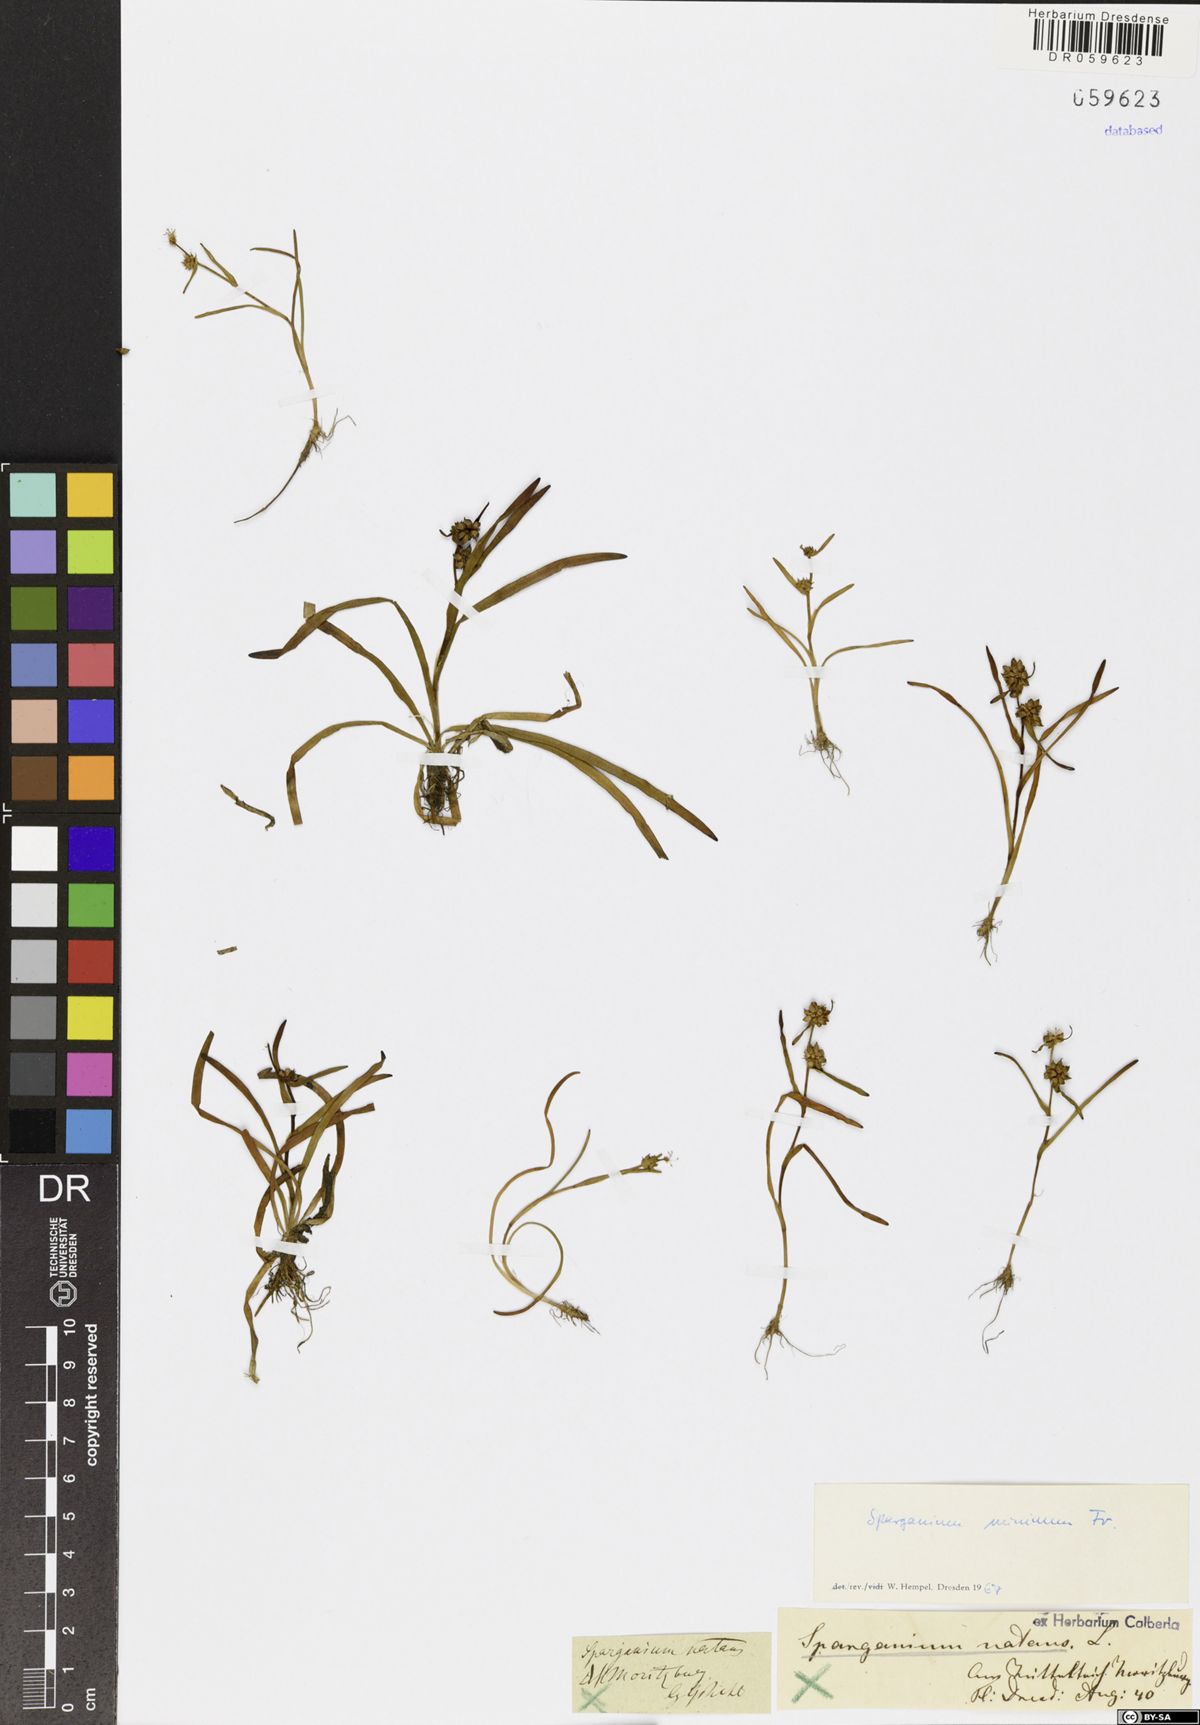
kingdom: Plantae
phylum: Tracheophyta
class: Liliopsida
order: Poales
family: Typhaceae
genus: Sparganium
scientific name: Sparganium natans
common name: Least bur-reed
